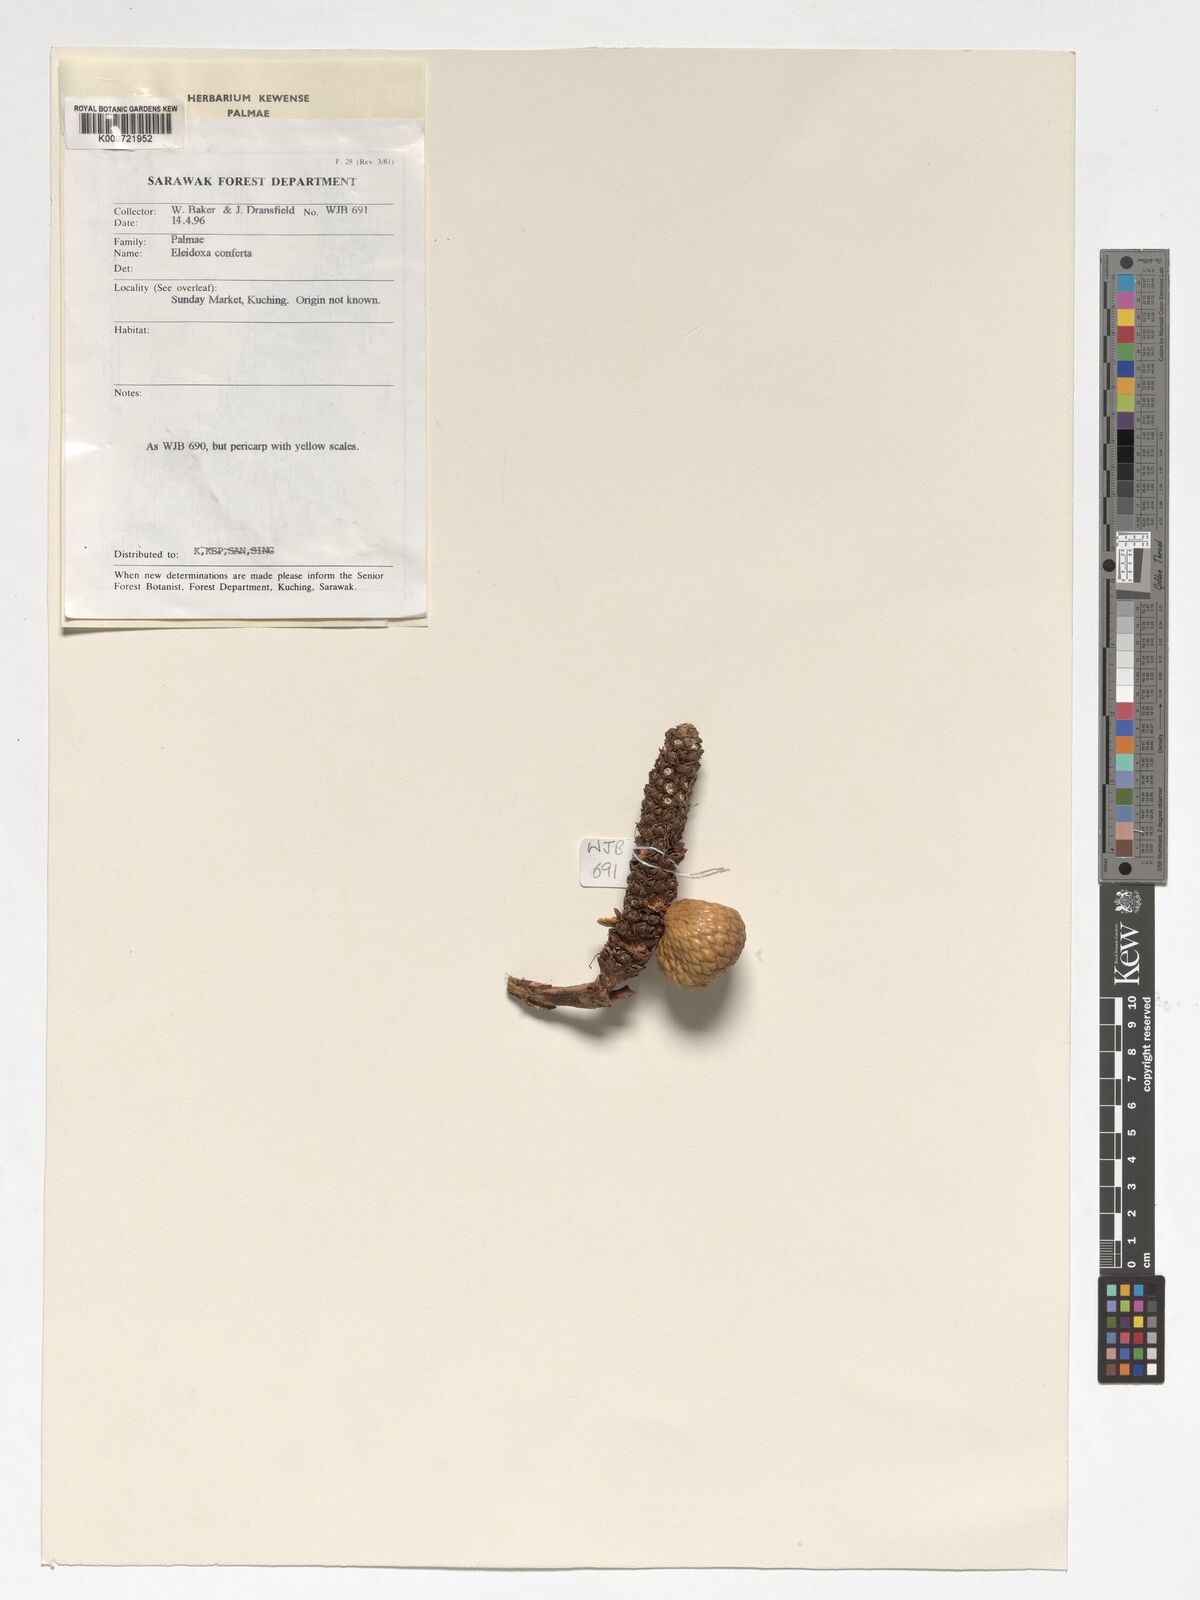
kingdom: Plantae
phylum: Tracheophyta
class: Liliopsida
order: Arecales
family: Arecaceae
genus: Eleiodoxa
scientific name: Eleiodoxa conferta
